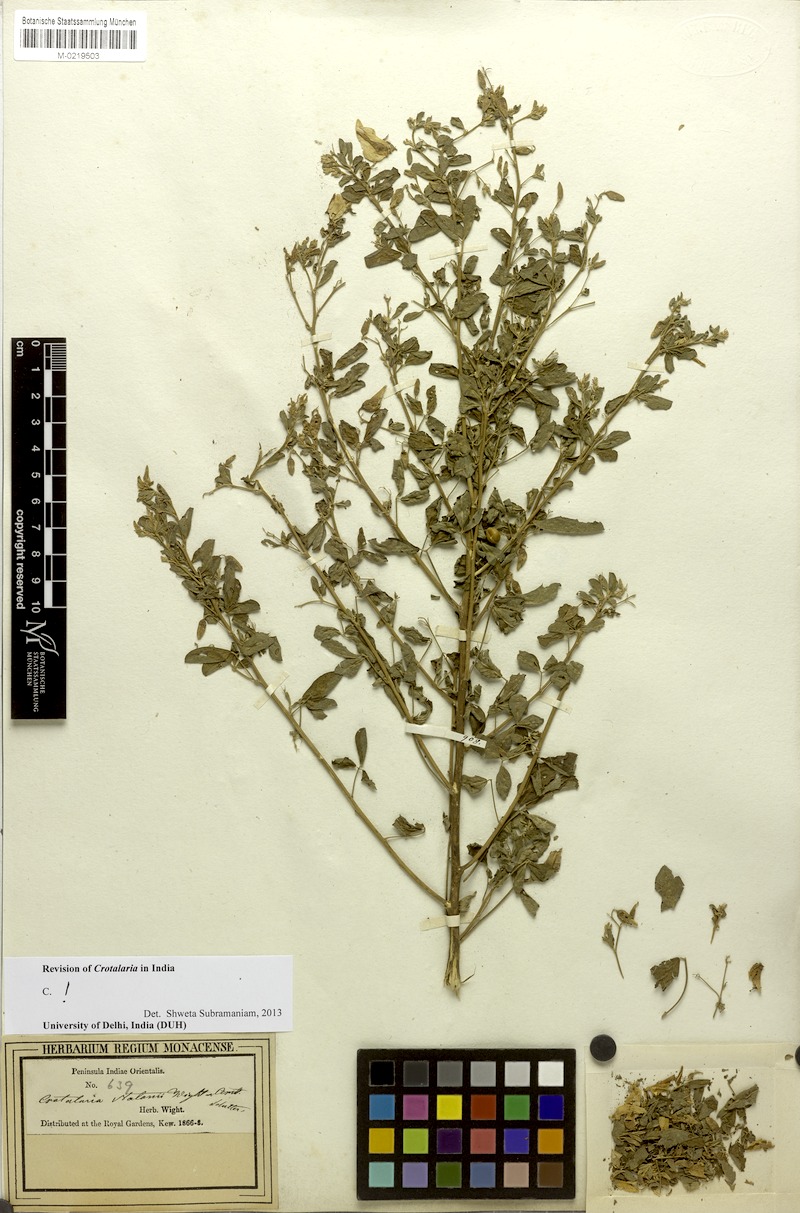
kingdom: Plantae
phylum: Tracheophyta
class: Magnoliopsida
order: Fabales
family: Fabaceae
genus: Crotalaria
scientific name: Crotalaria notonii
